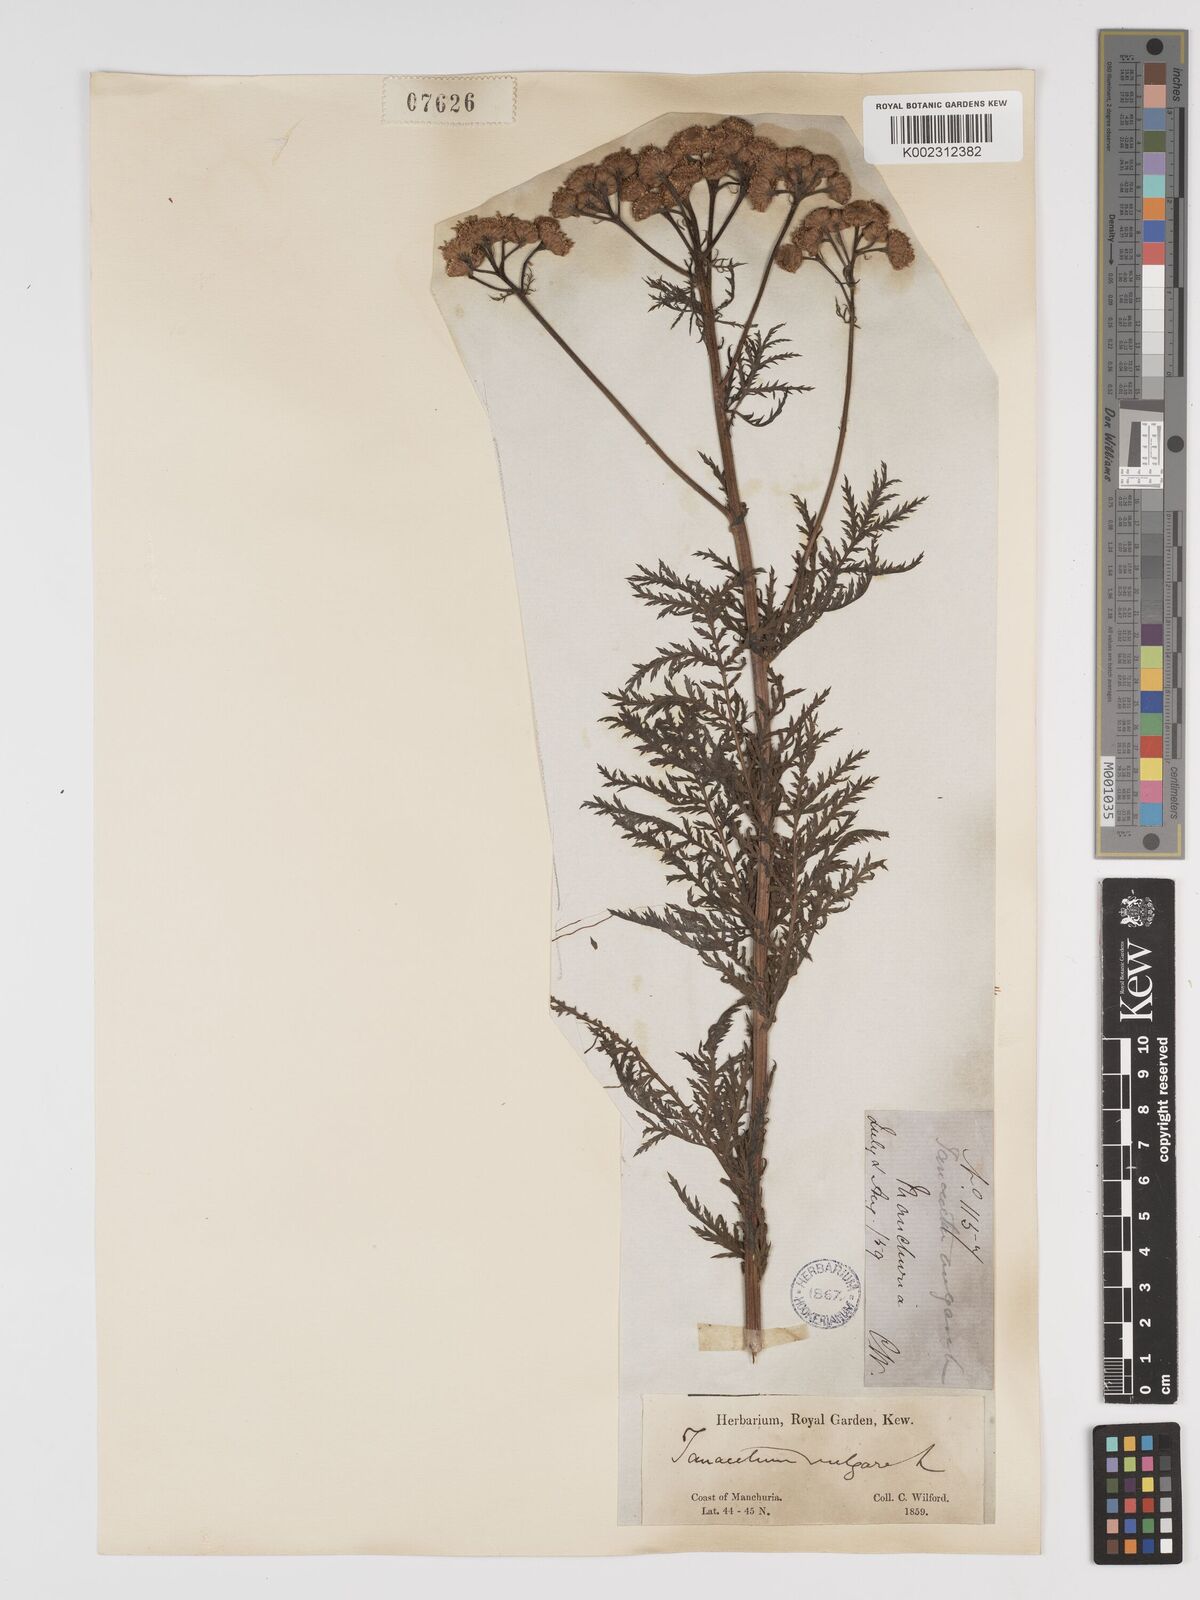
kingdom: Plantae
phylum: Tracheophyta
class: Magnoliopsida
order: Asterales
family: Asteraceae
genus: Tanacetum
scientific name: Tanacetum vulgare
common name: Common tansy
